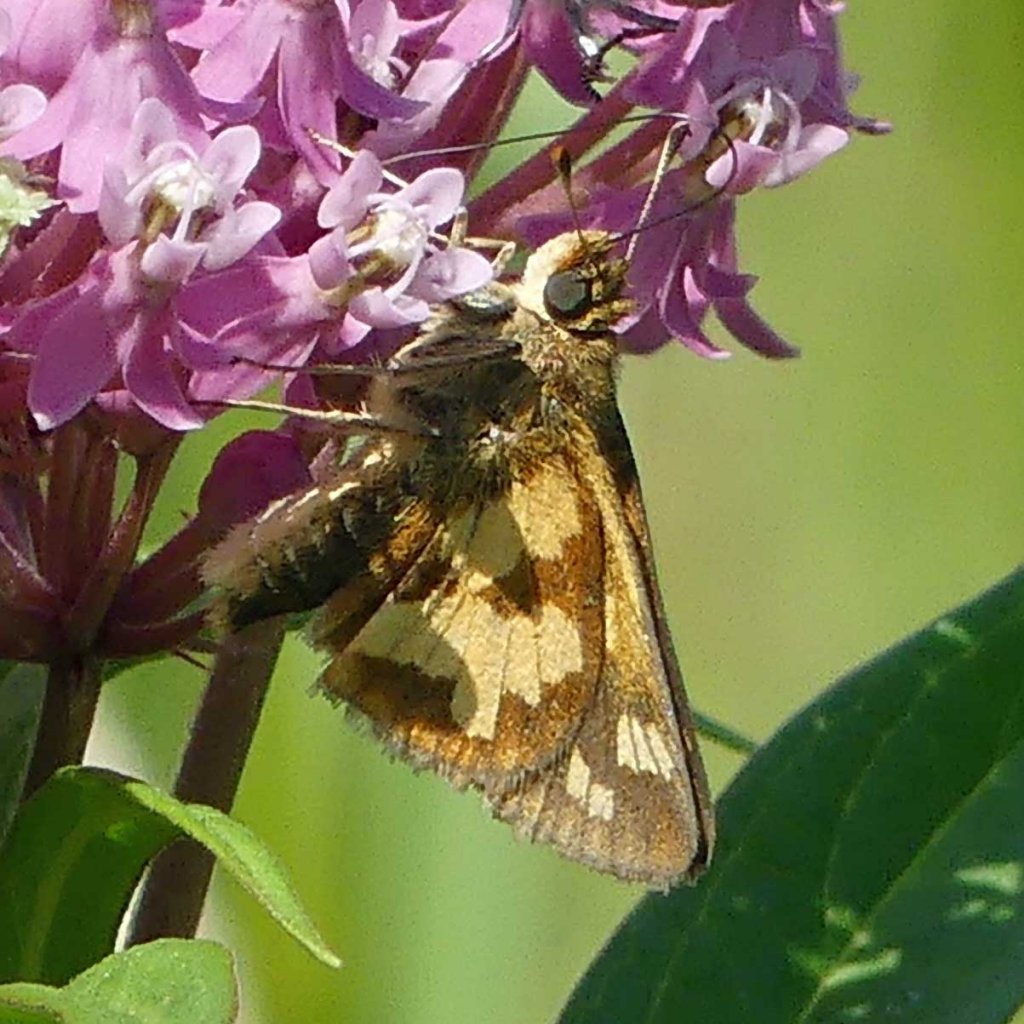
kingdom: Animalia
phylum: Arthropoda
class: Insecta
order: Lepidoptera
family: Hesperiidae
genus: Polites
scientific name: Polites coras
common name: Peck's Skipper
